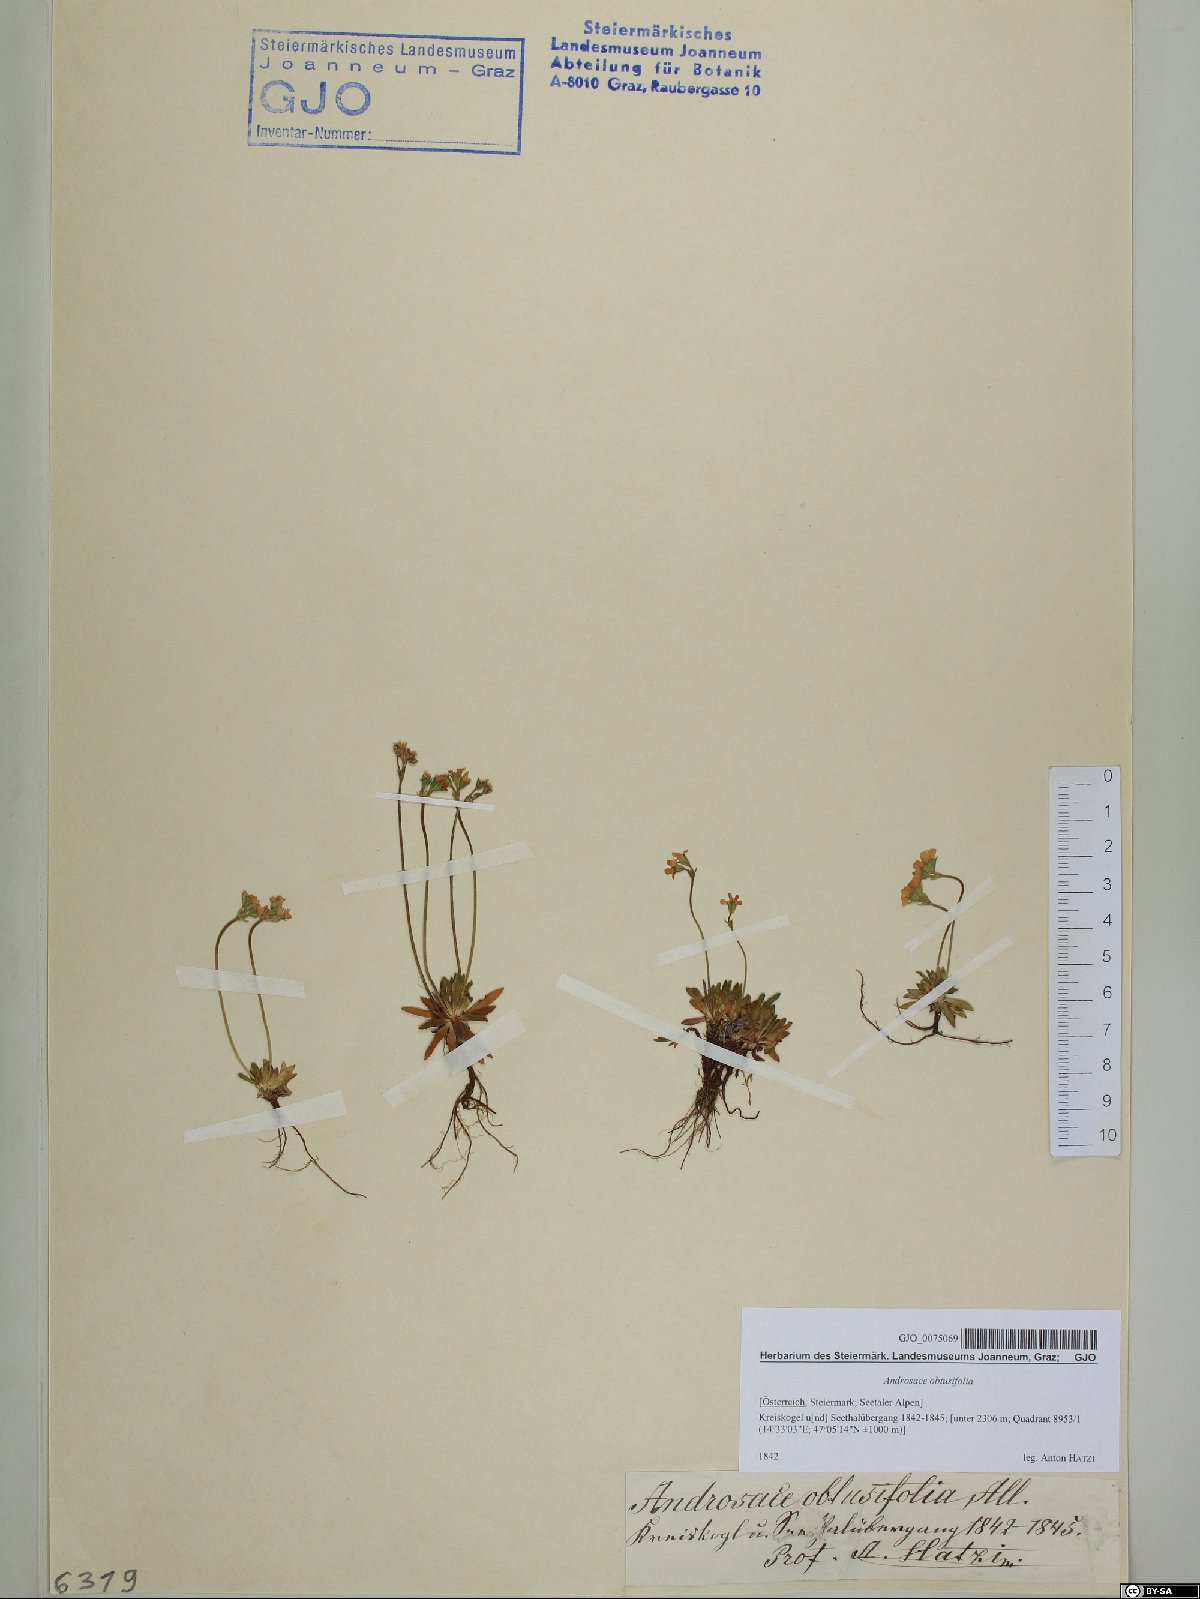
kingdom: Plantae
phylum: Tracheophyta
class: Magnoliopsida
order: Ericales
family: Primulaceae
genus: Androsace
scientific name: Androsace obtusifolia
